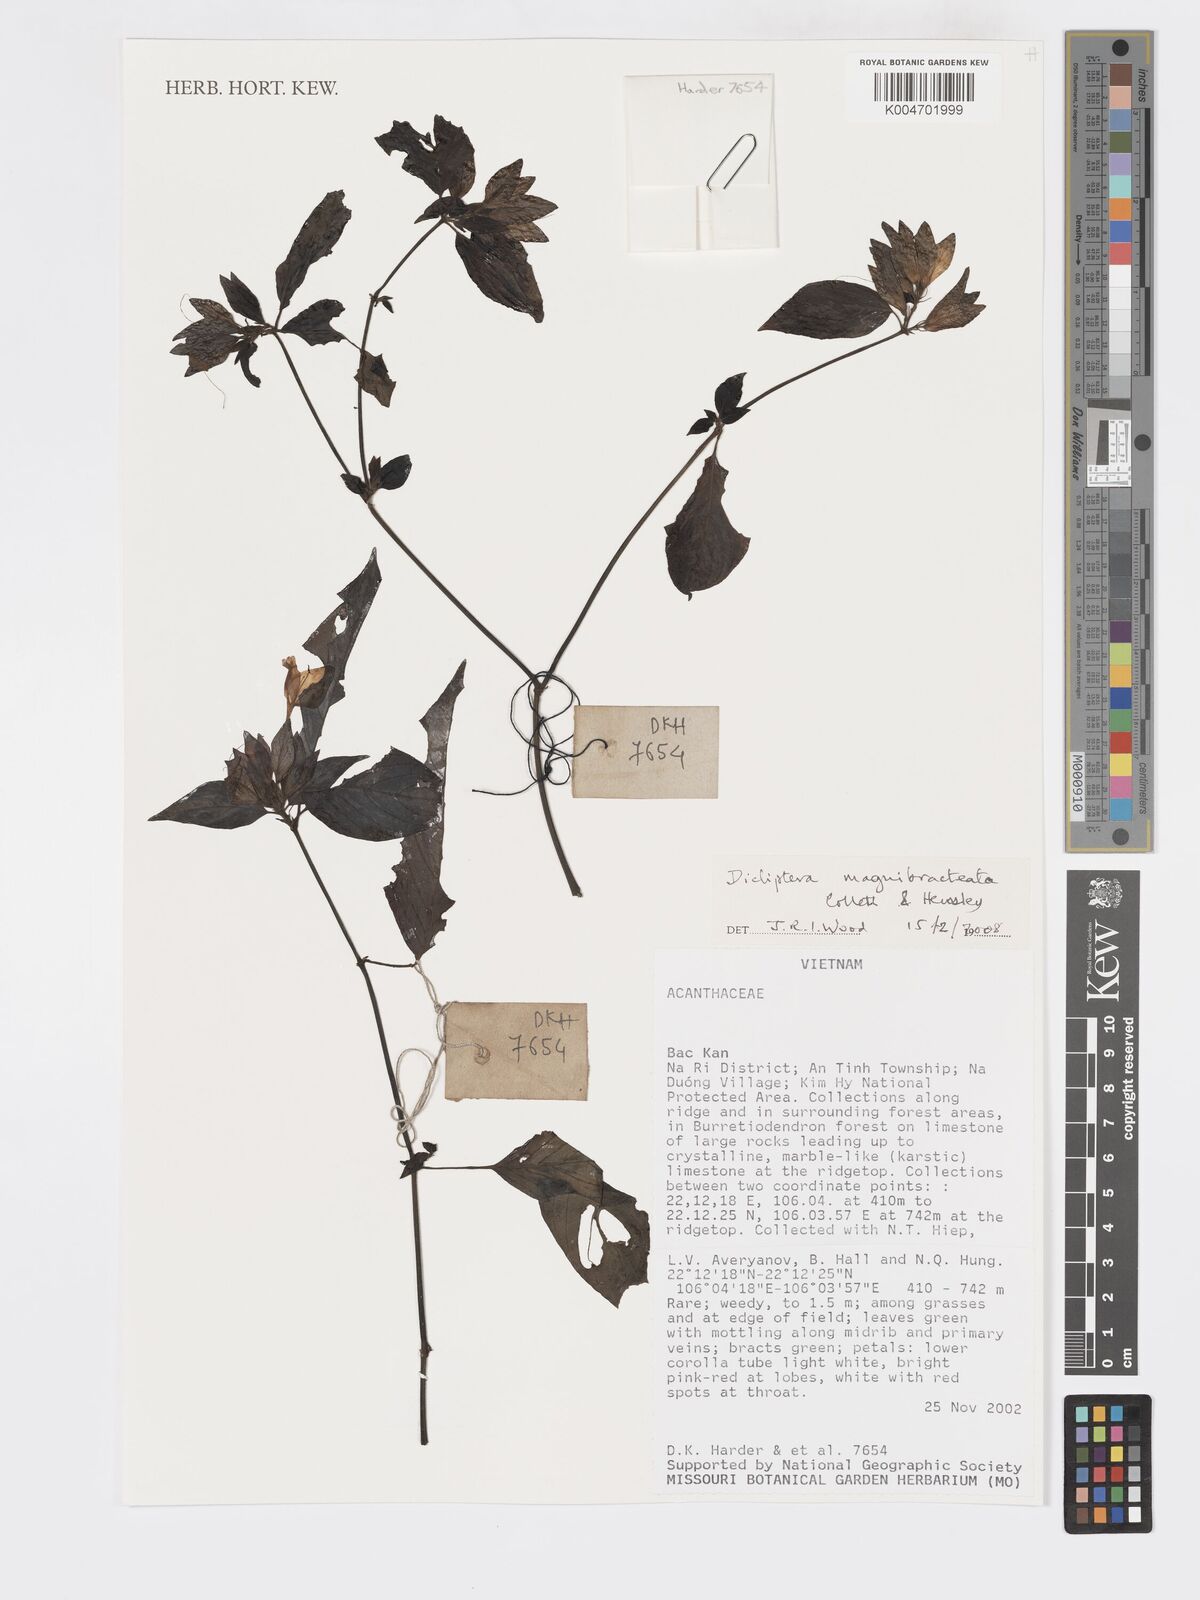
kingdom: Plantae
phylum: Tracheophyta
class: Magnoliopsida
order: Lamiales
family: Acanthaceae
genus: Dicliptera
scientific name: Dicliptera magnibracteata
